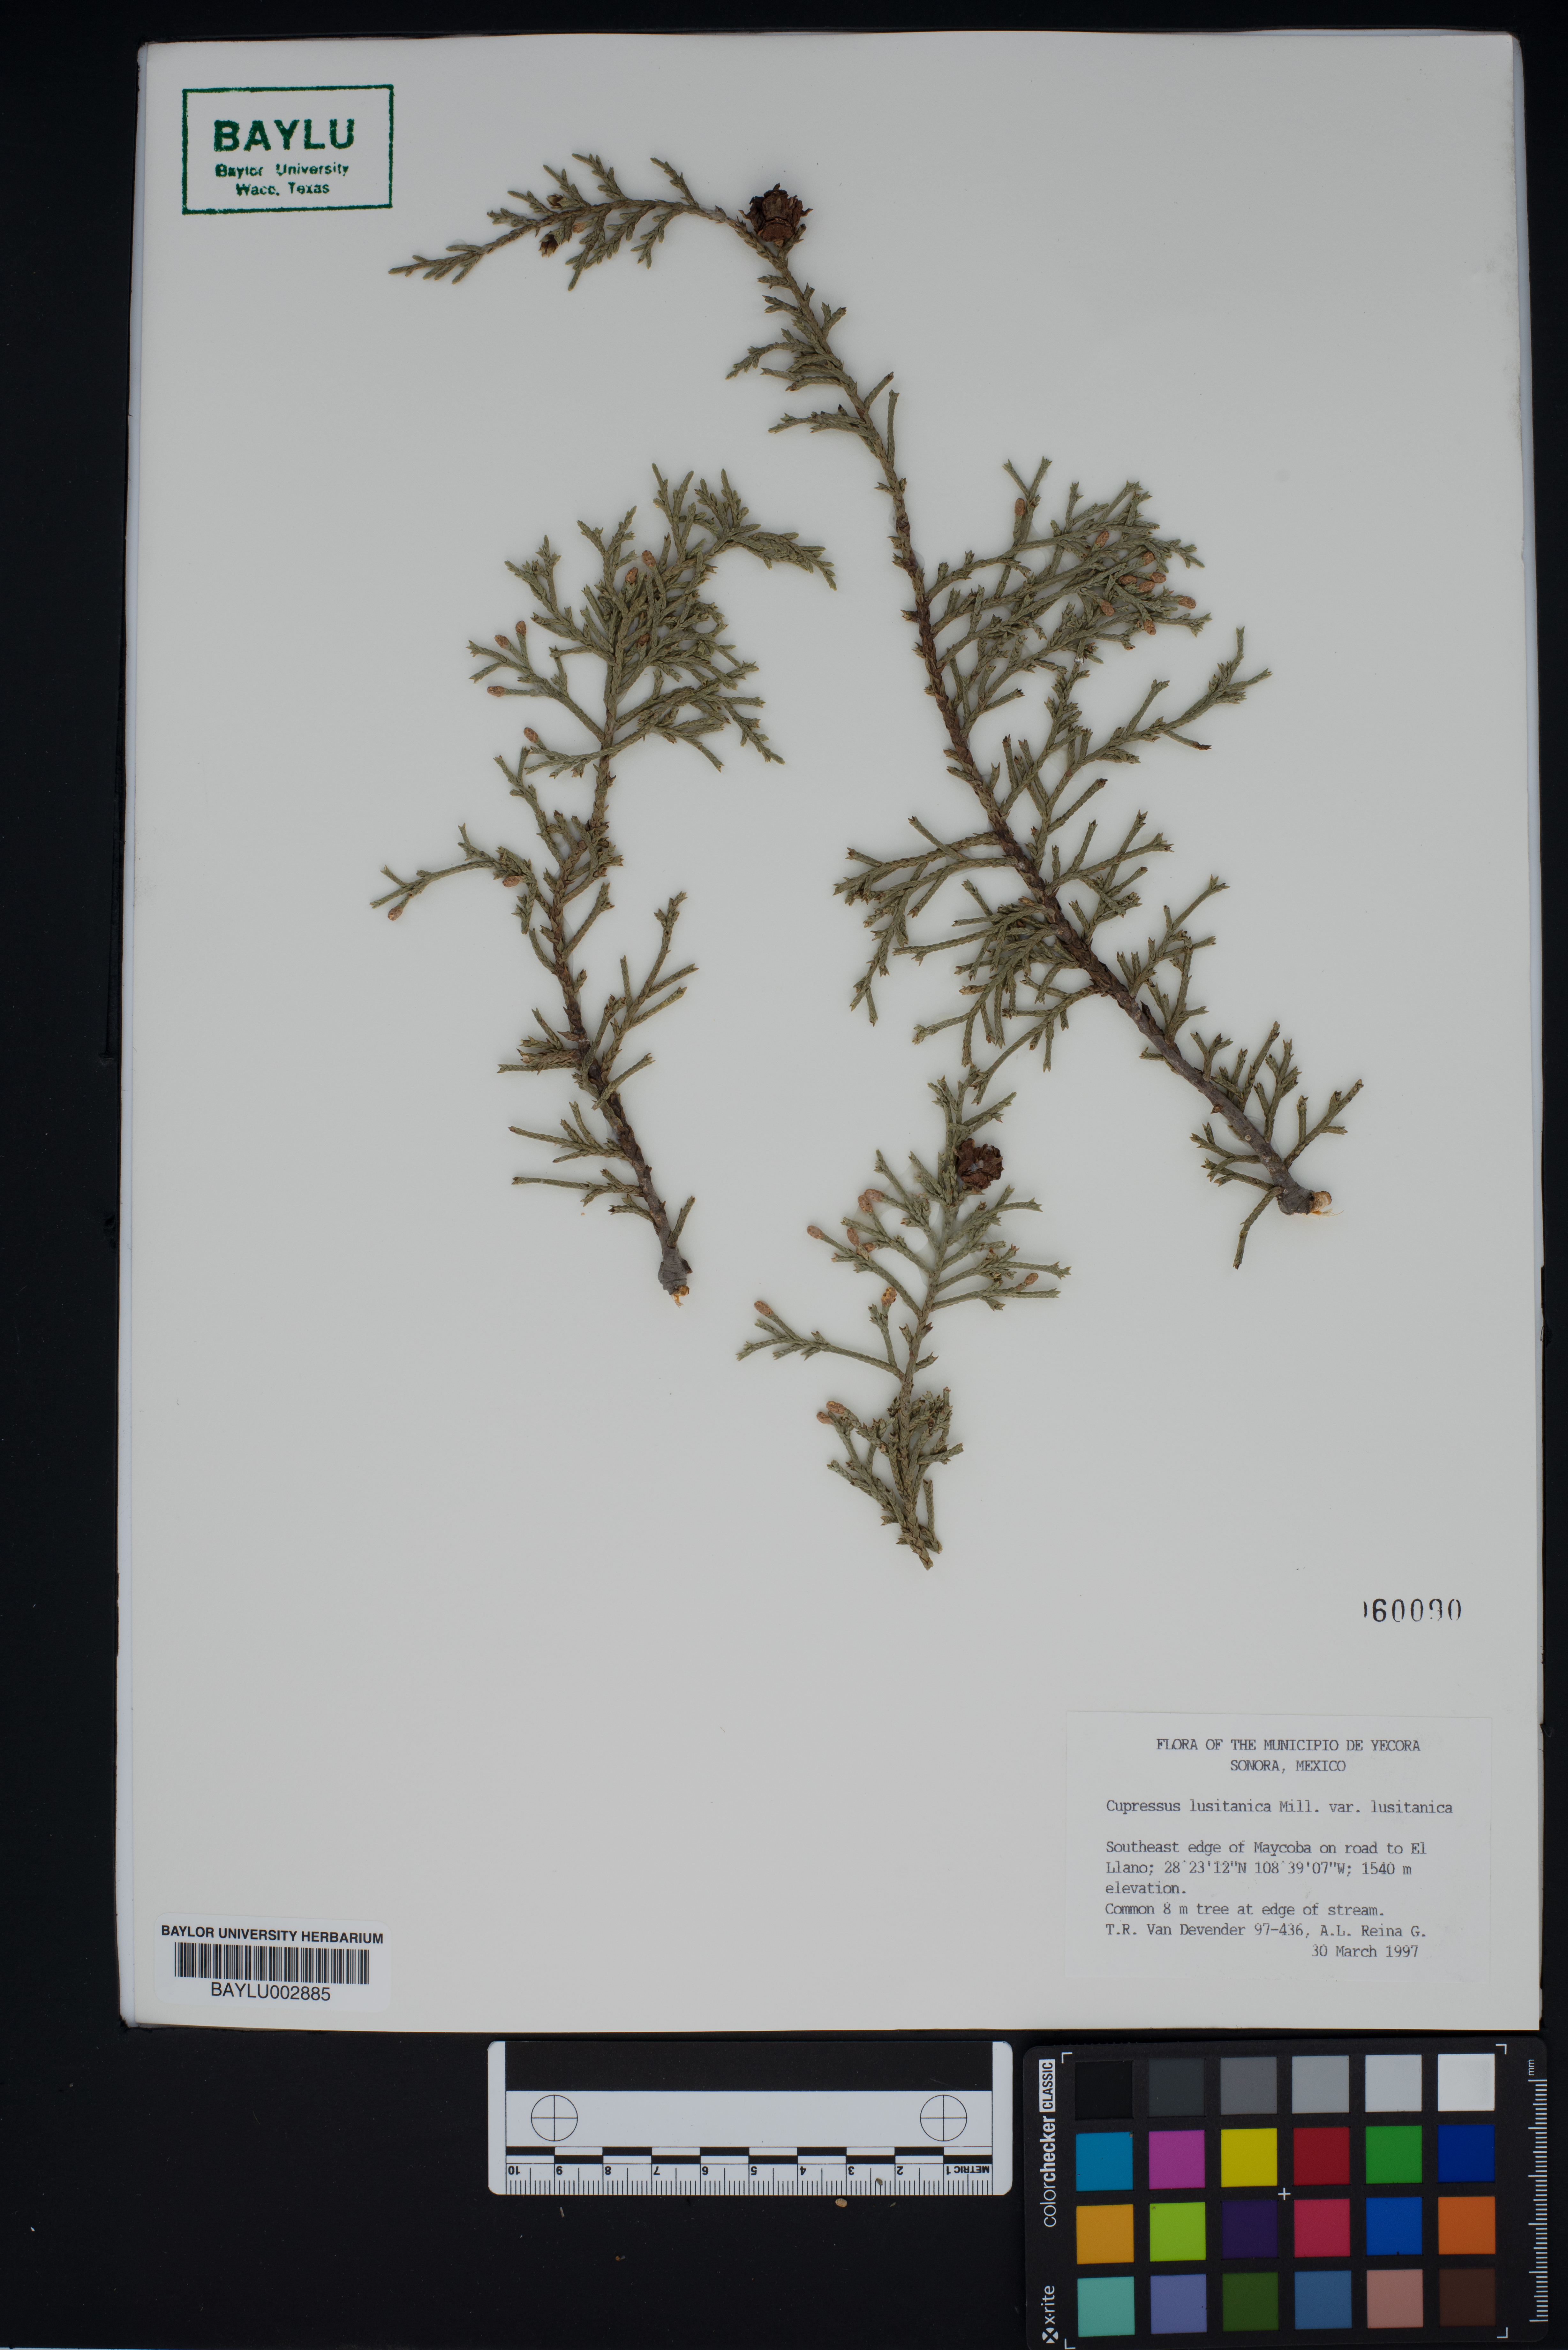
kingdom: Plantae
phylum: Tracheophyta
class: Pinopsida
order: Pinales
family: Cupressaceae
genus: Cupressus
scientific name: Cupressus lusitanica
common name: Mexican cypress
